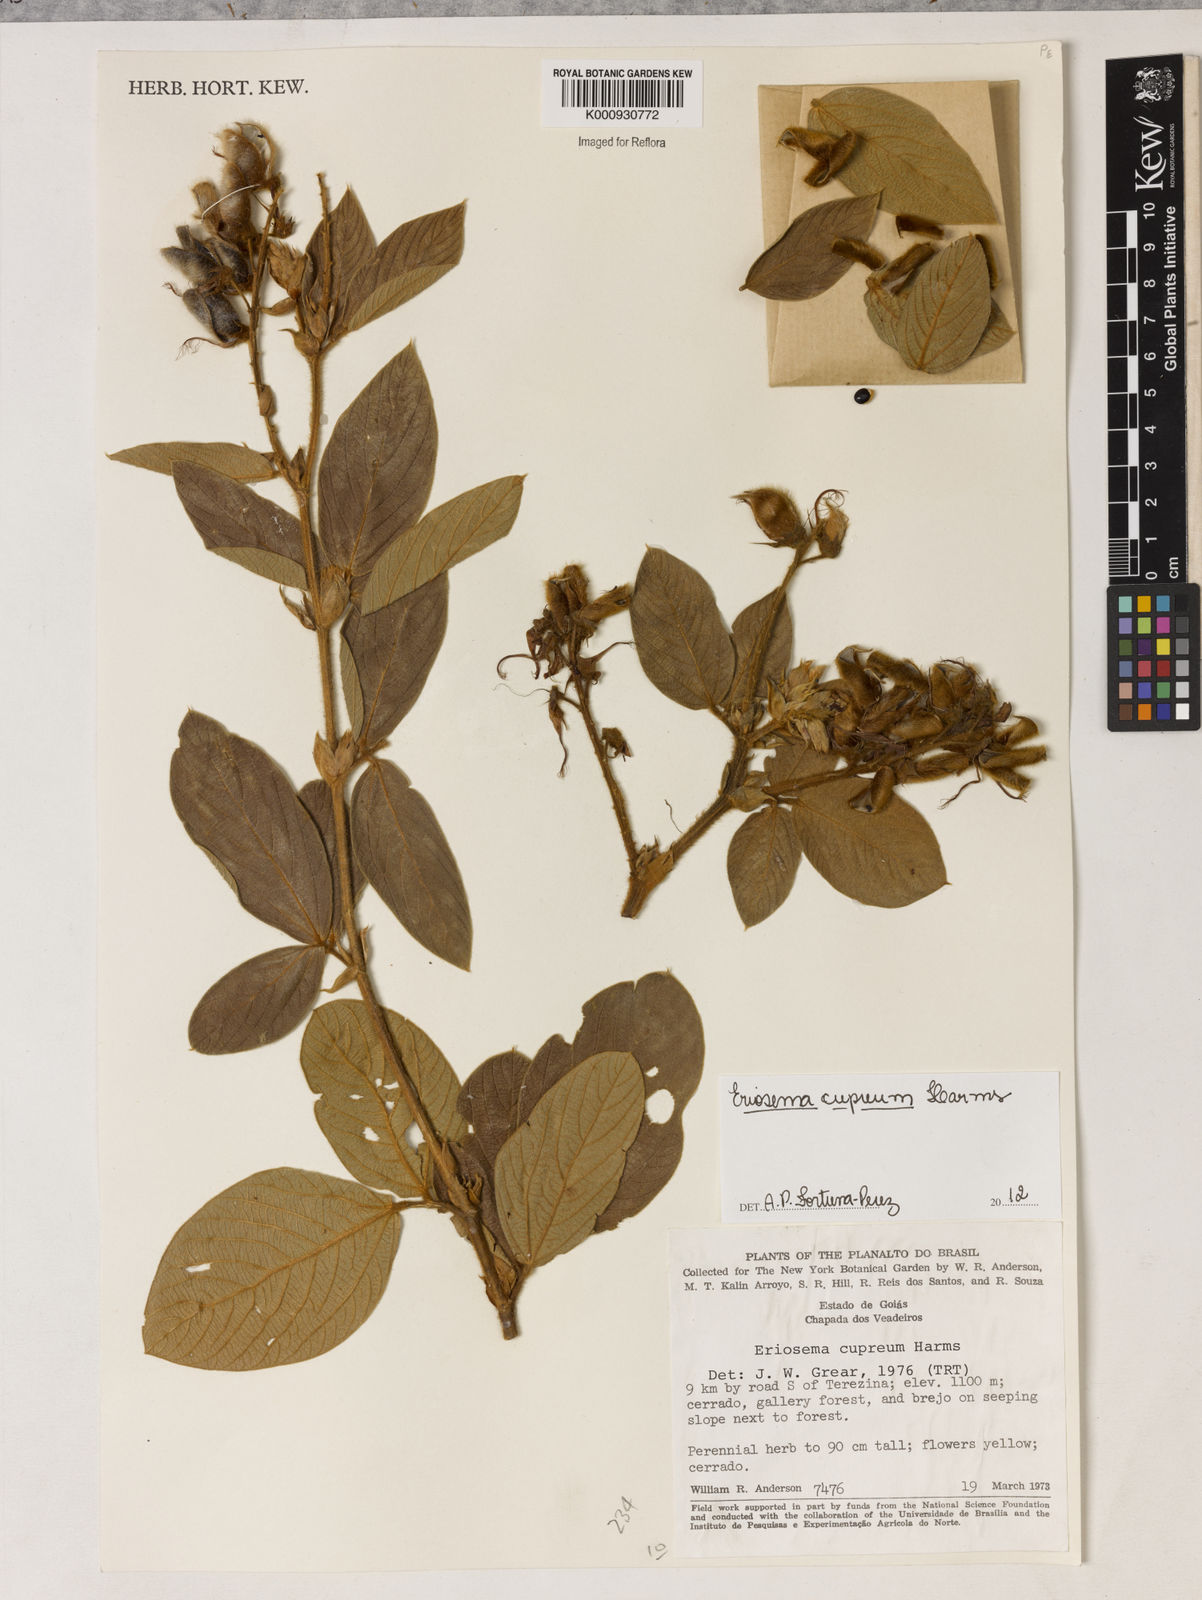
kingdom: Plantae
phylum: Tracheophyta
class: Magnoliopsida
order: Fabales
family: Fabaceae
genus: Eriosema
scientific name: Eriosema cupreum
